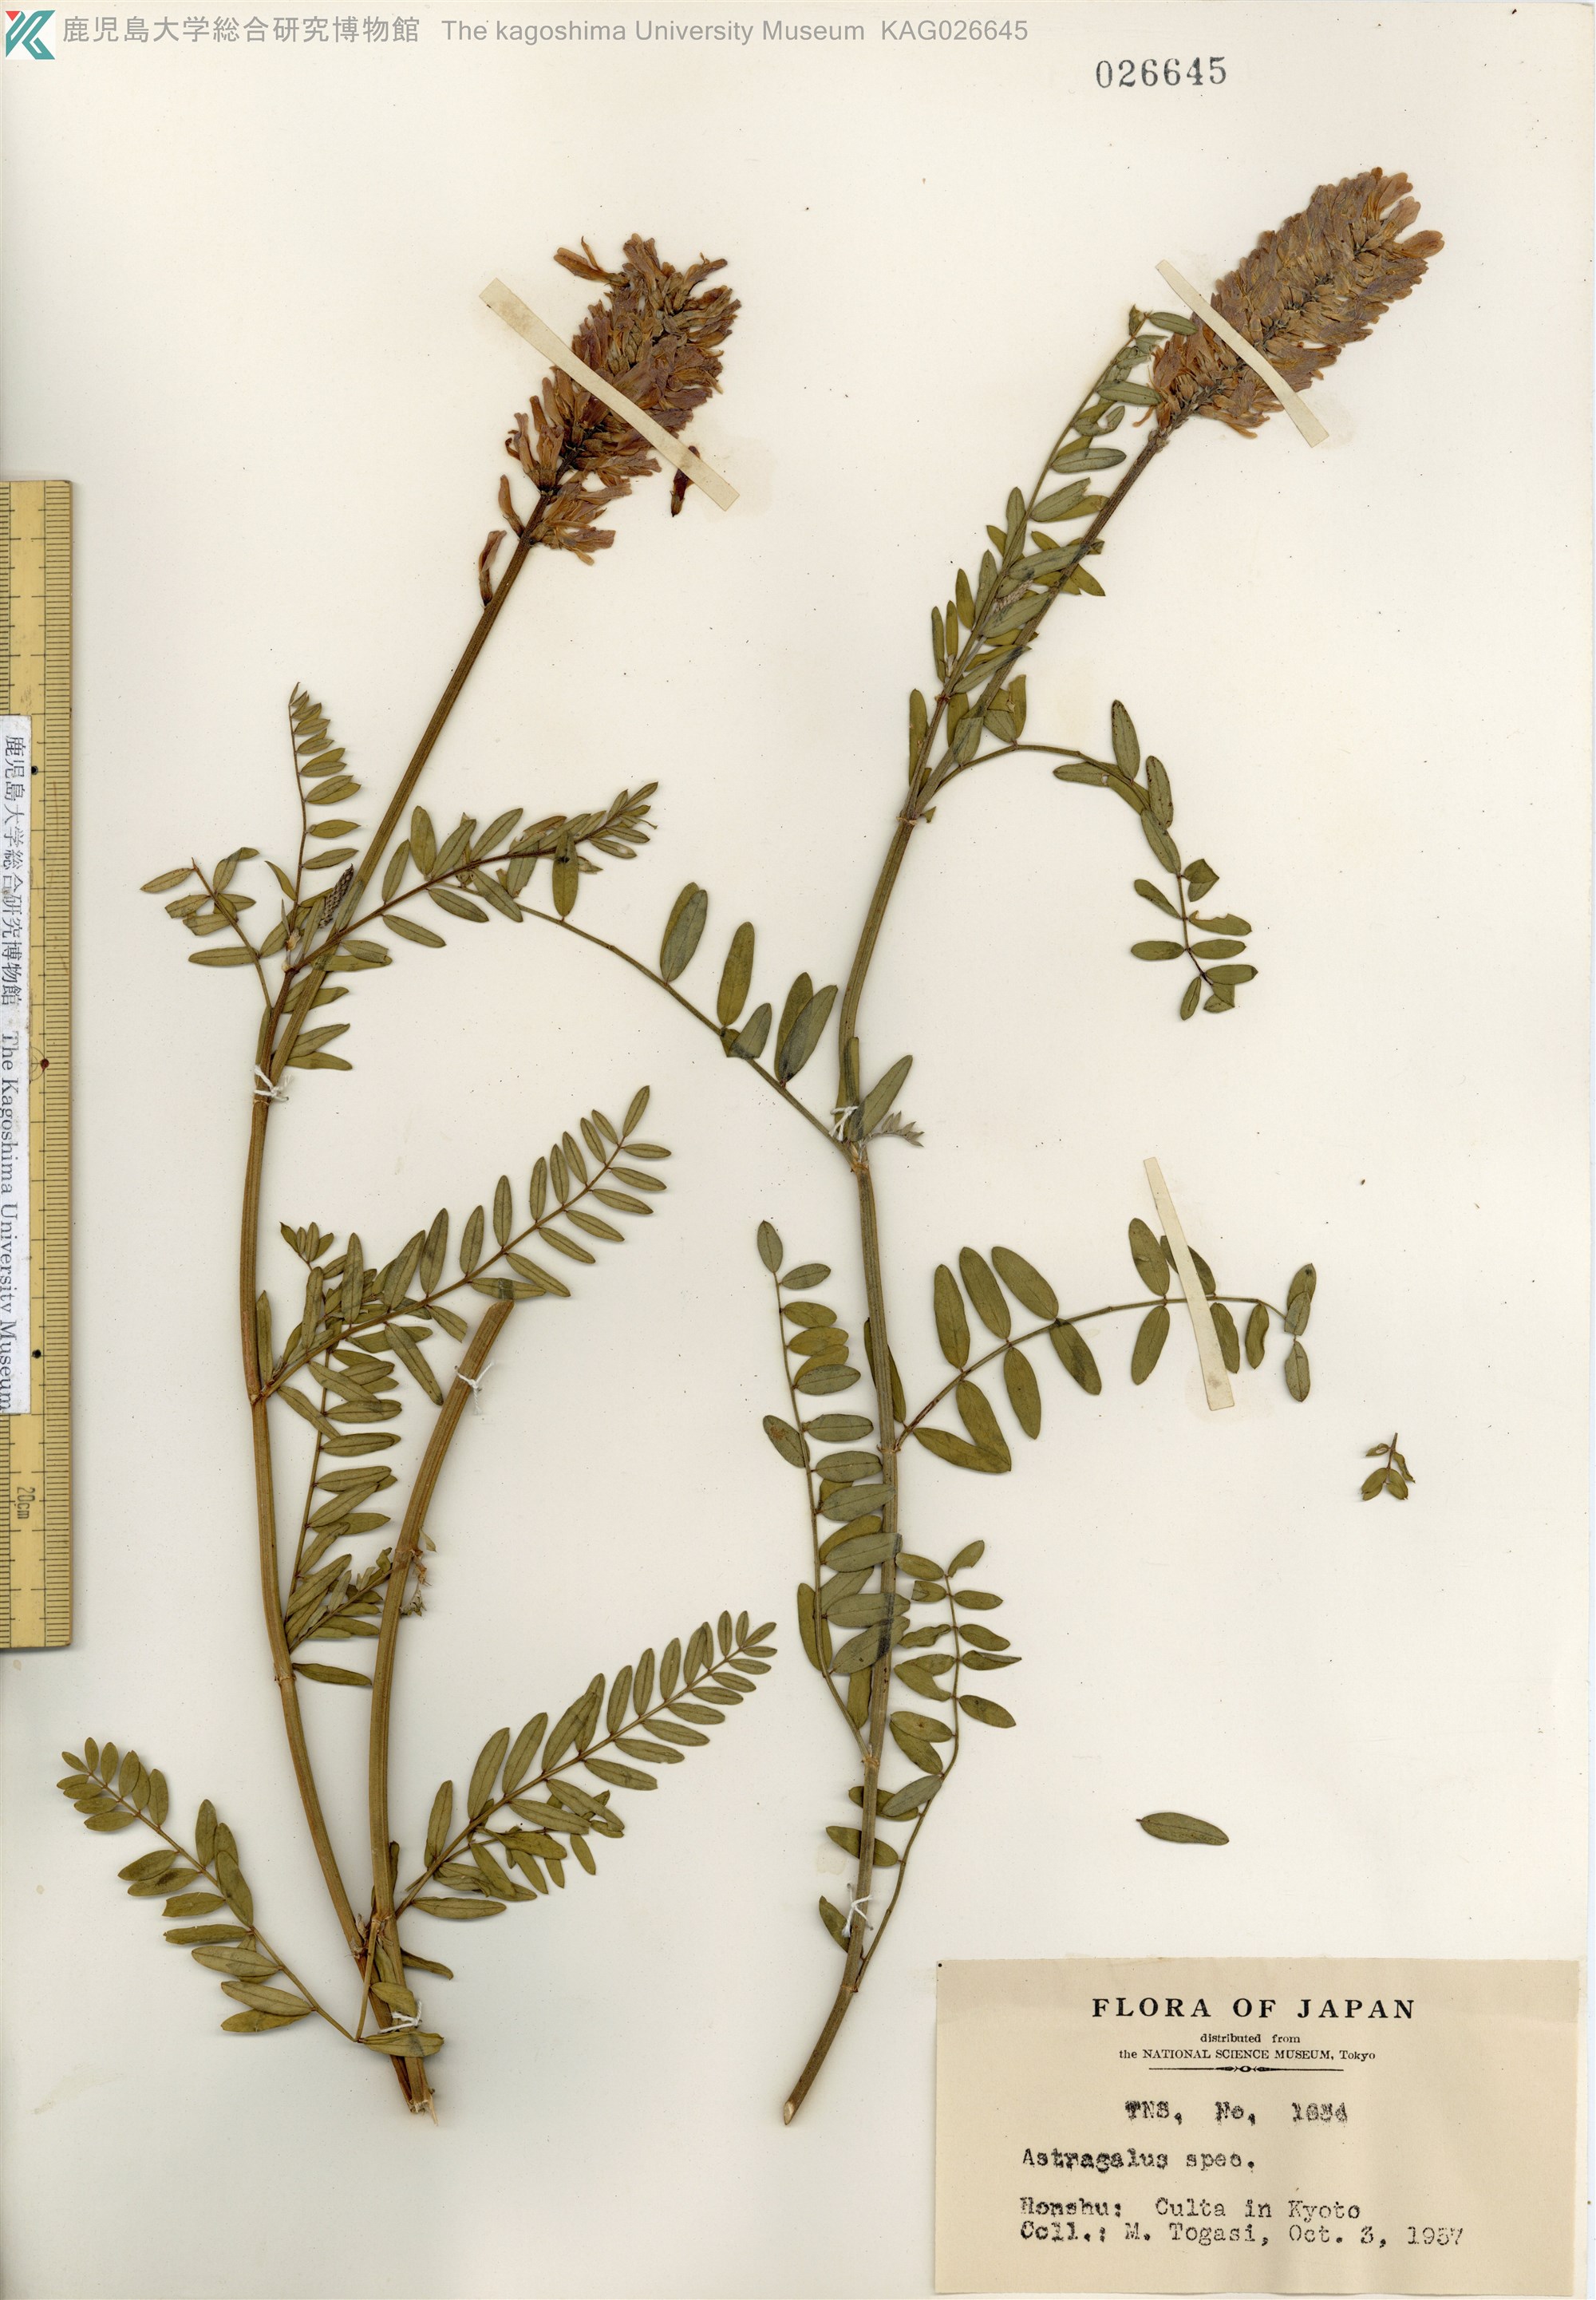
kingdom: Plantae
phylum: Tracheophyta
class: Magnoliopsida
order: Fabales
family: Fabaceae
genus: Astragalus
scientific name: Astragalus lentiginosus
